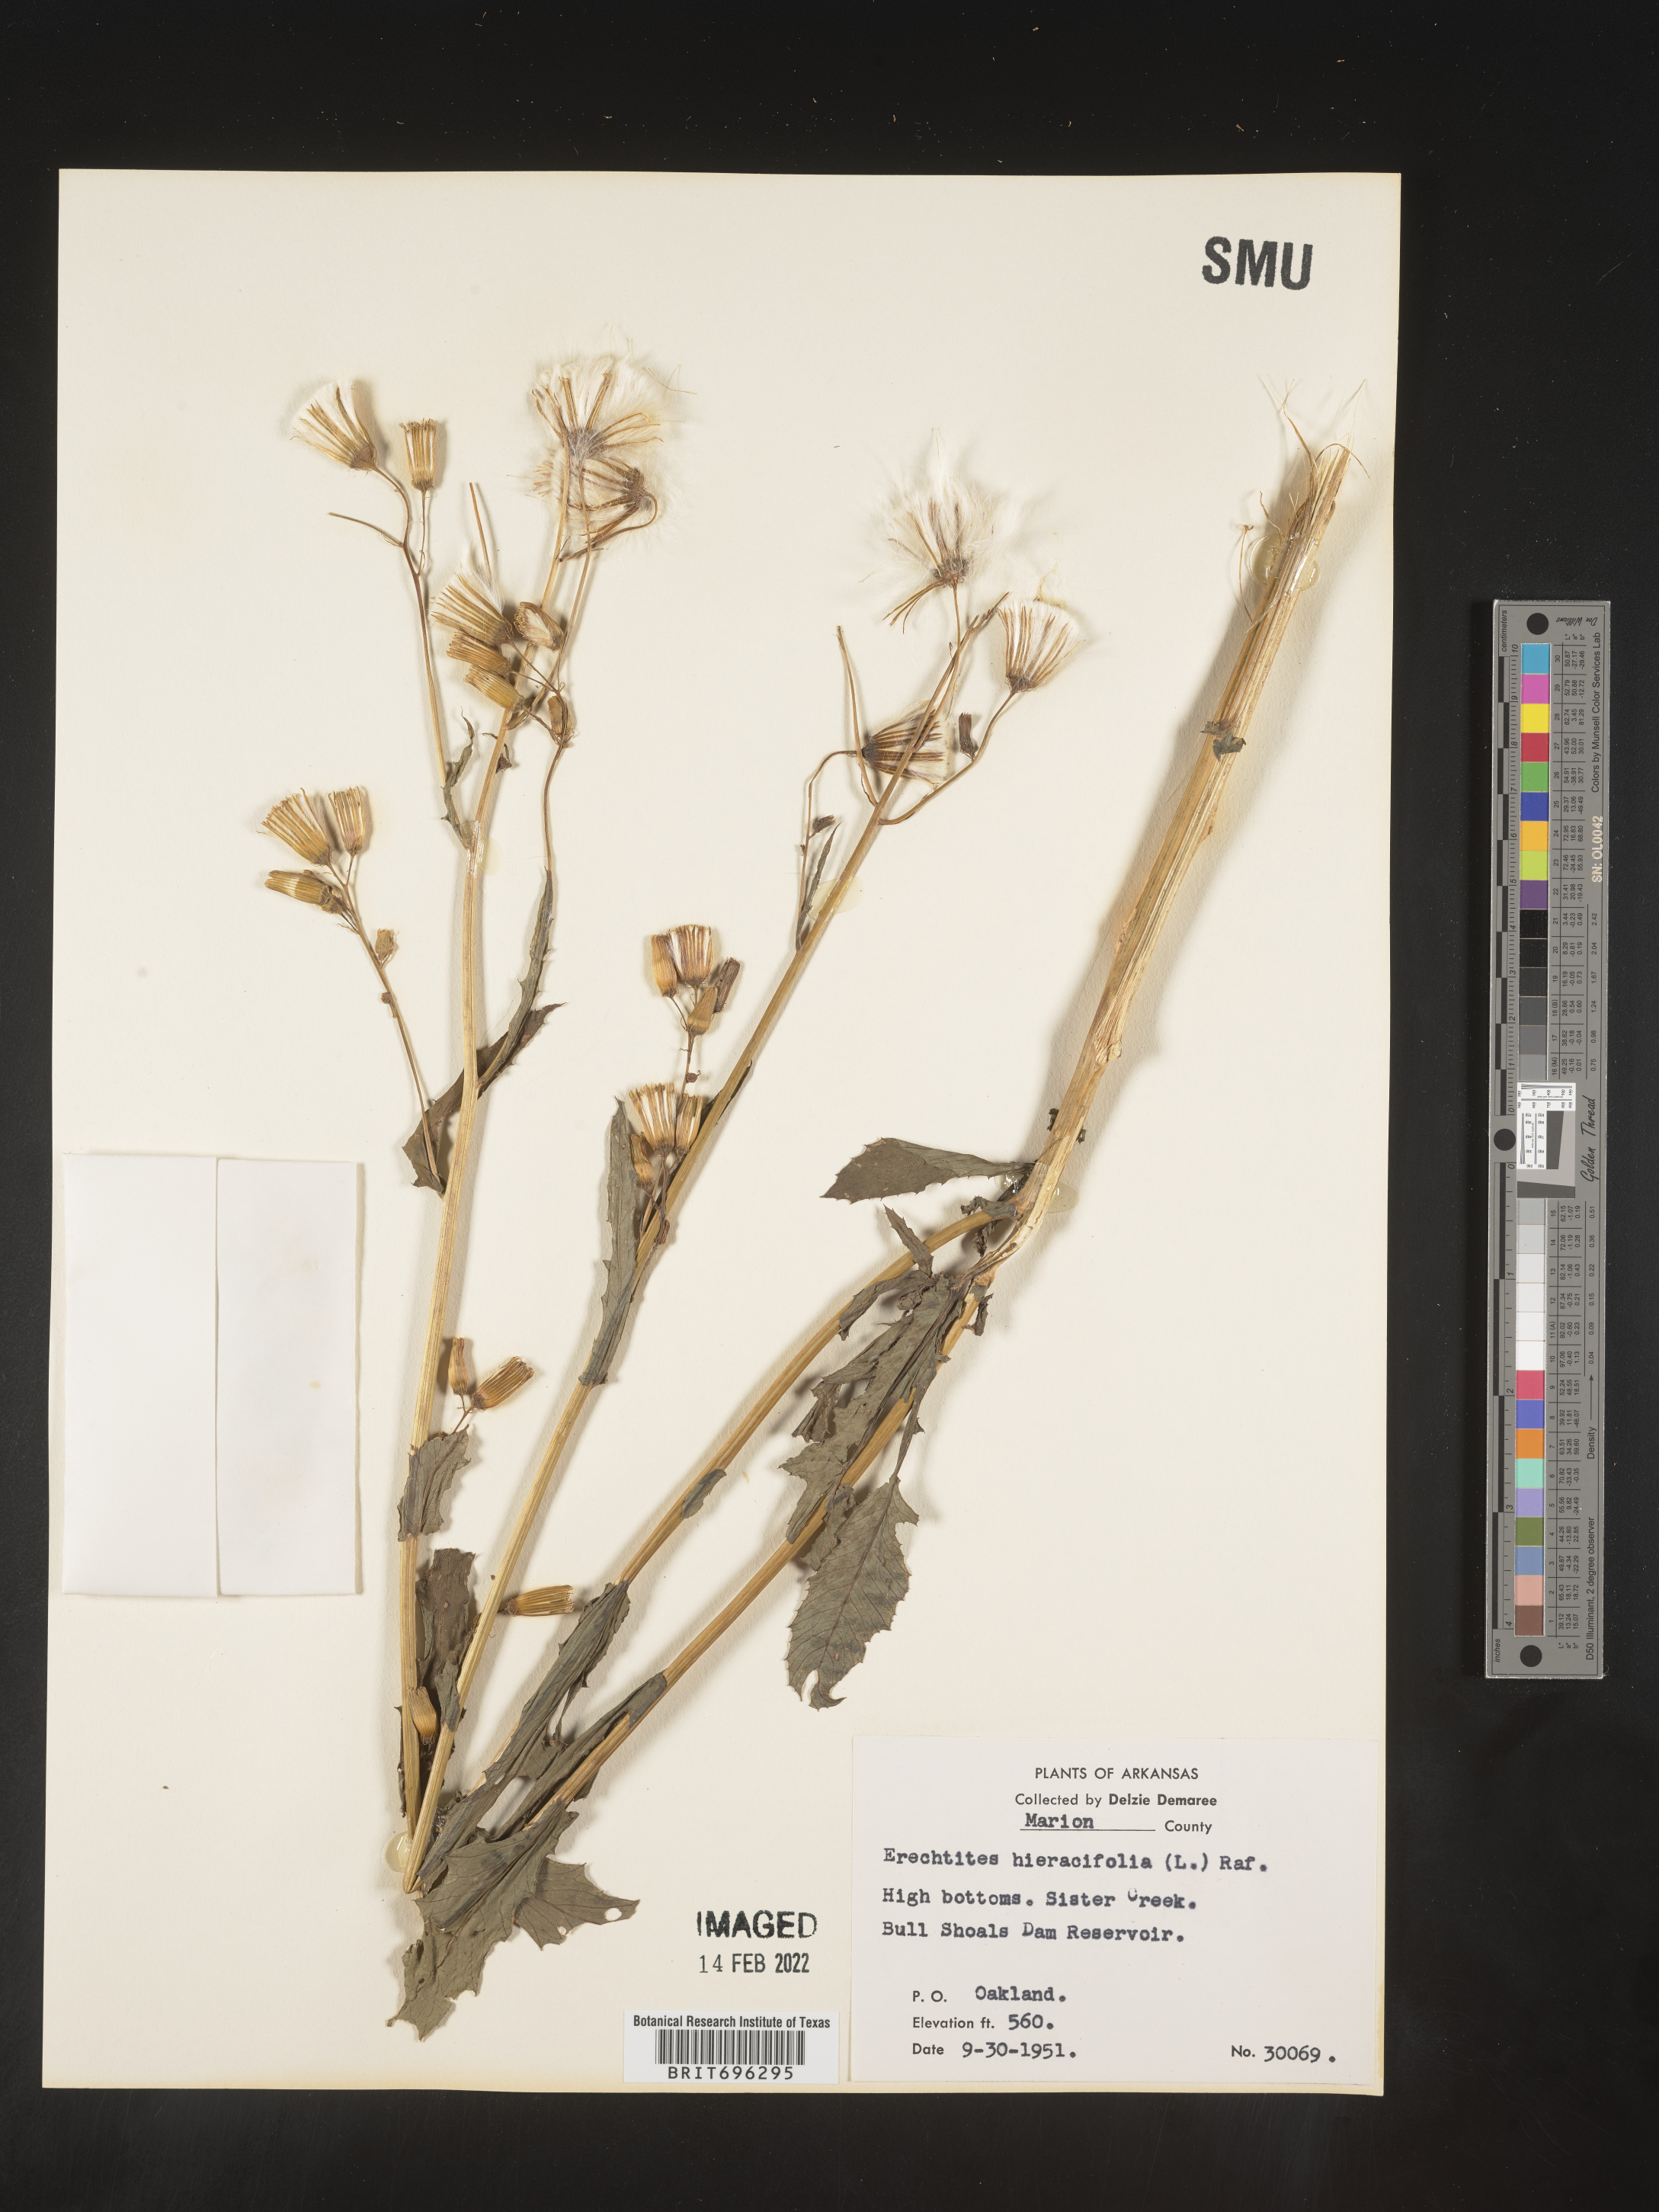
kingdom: Plantae
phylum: Tracheophyta
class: Magnoliopsida
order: Asterales
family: Asteraceae
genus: Erechtites
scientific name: Erechtites hieraciifolius
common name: American burnweed
